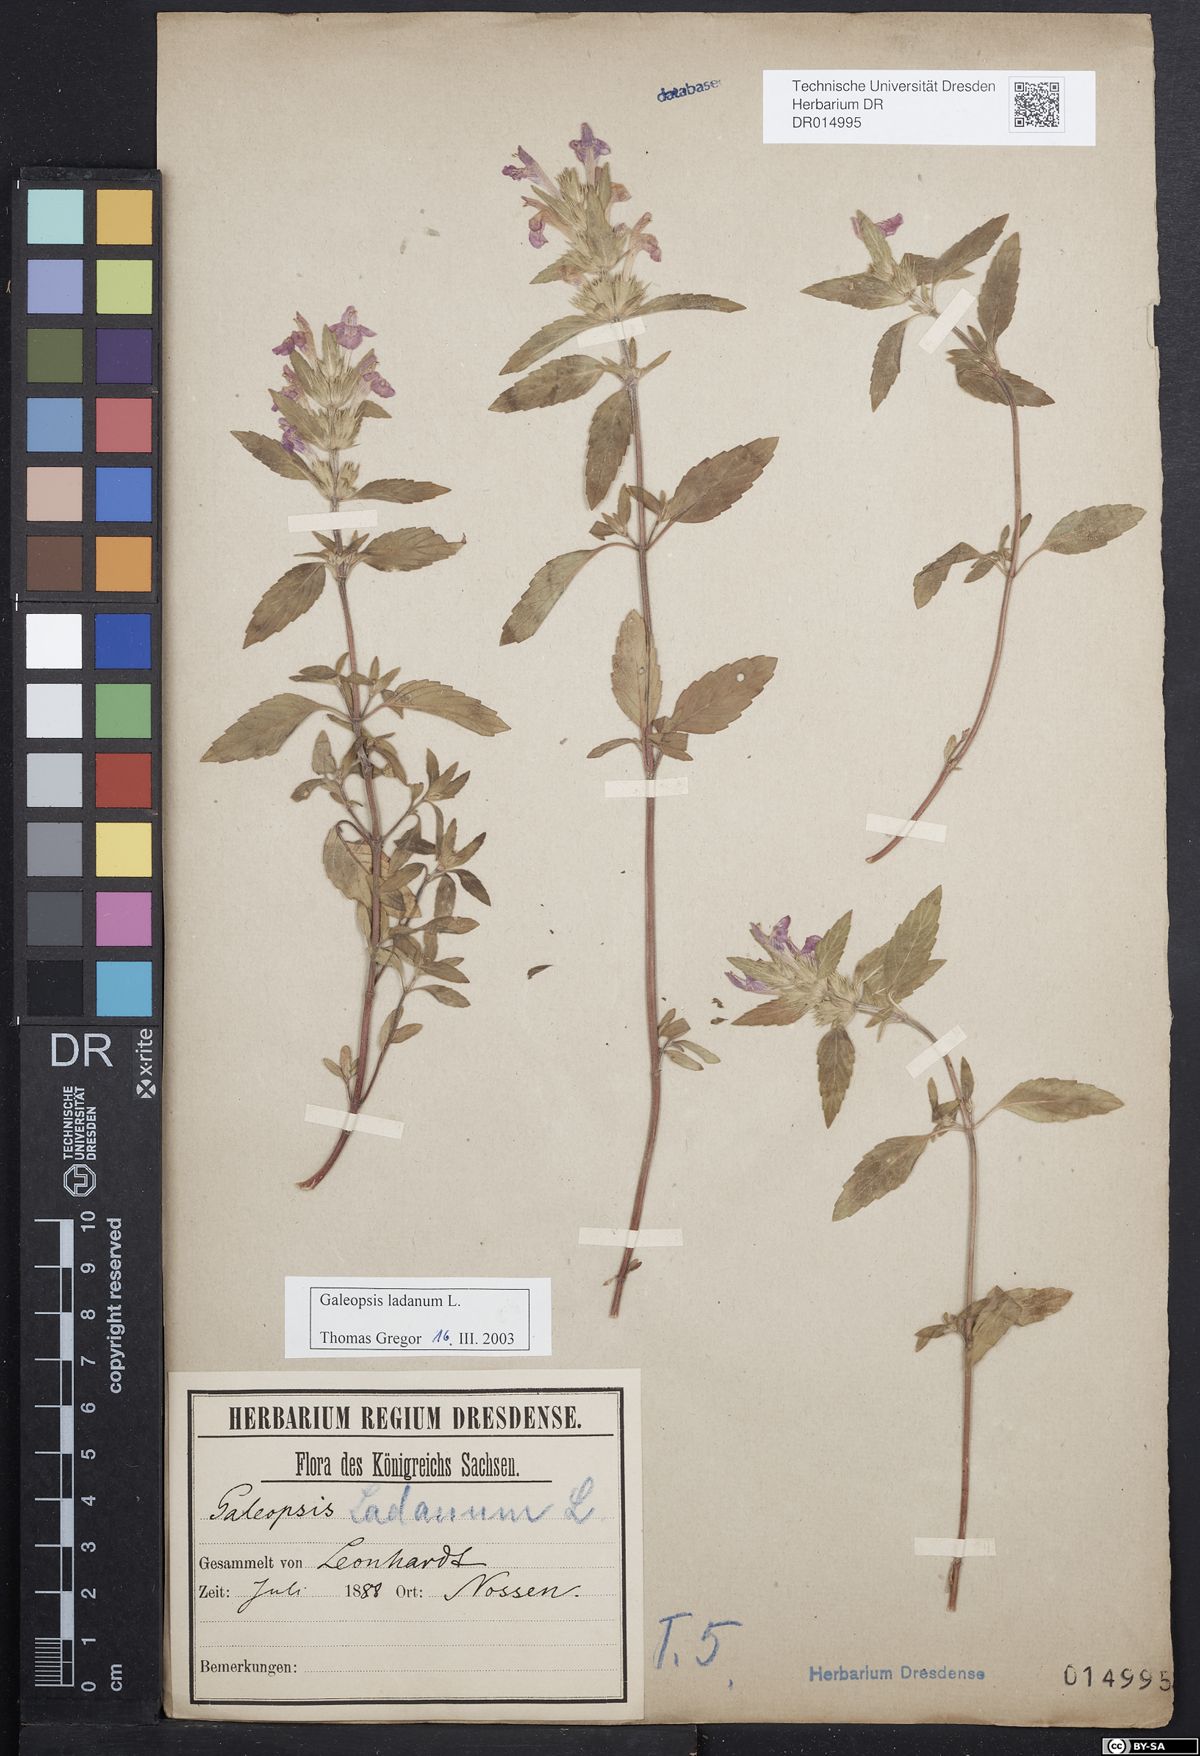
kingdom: Plantae
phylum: Tracheophyta
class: Magnoliopsida
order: Lamiales
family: Lamiaceae
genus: Galeopsis
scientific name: Galeopsis ladanum
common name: Broad-leaved hemp-nettle
